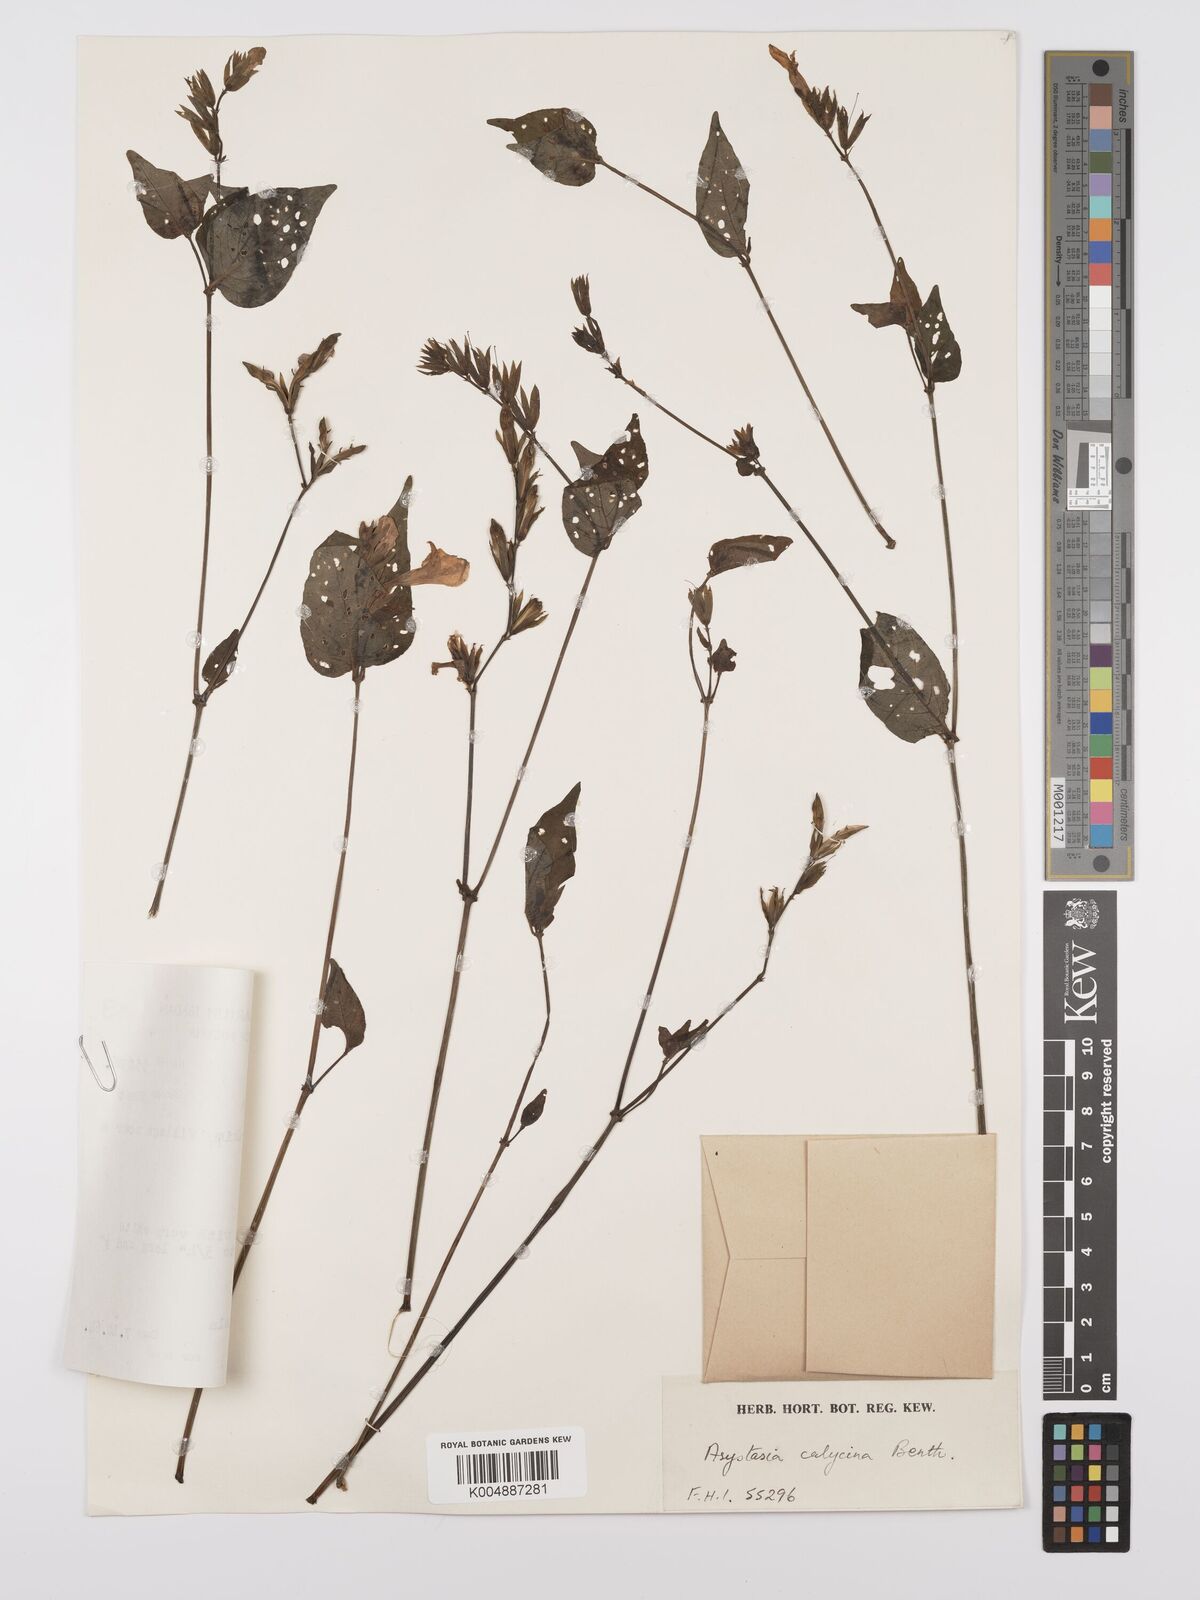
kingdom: Plantae
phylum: Tracheophyta
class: Magnoliopsida
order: Lamiales
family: Acanthaceae
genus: Asystasia
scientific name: Asystasia buettneri
